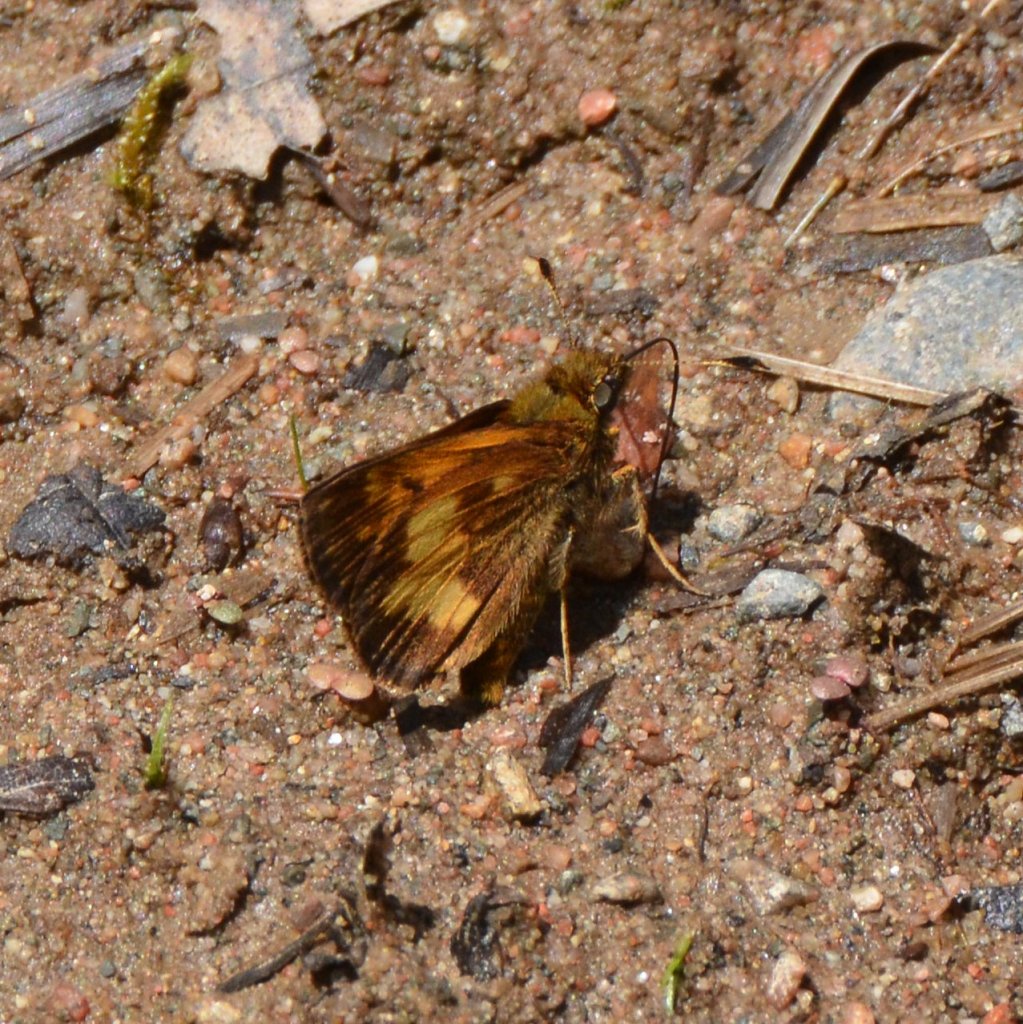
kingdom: Animalia
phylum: Arthropoda
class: Insecta
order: Lepidoptera
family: Hesperiidae
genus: Lon
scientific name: Lon hobomok
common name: Hobomok Skipper
